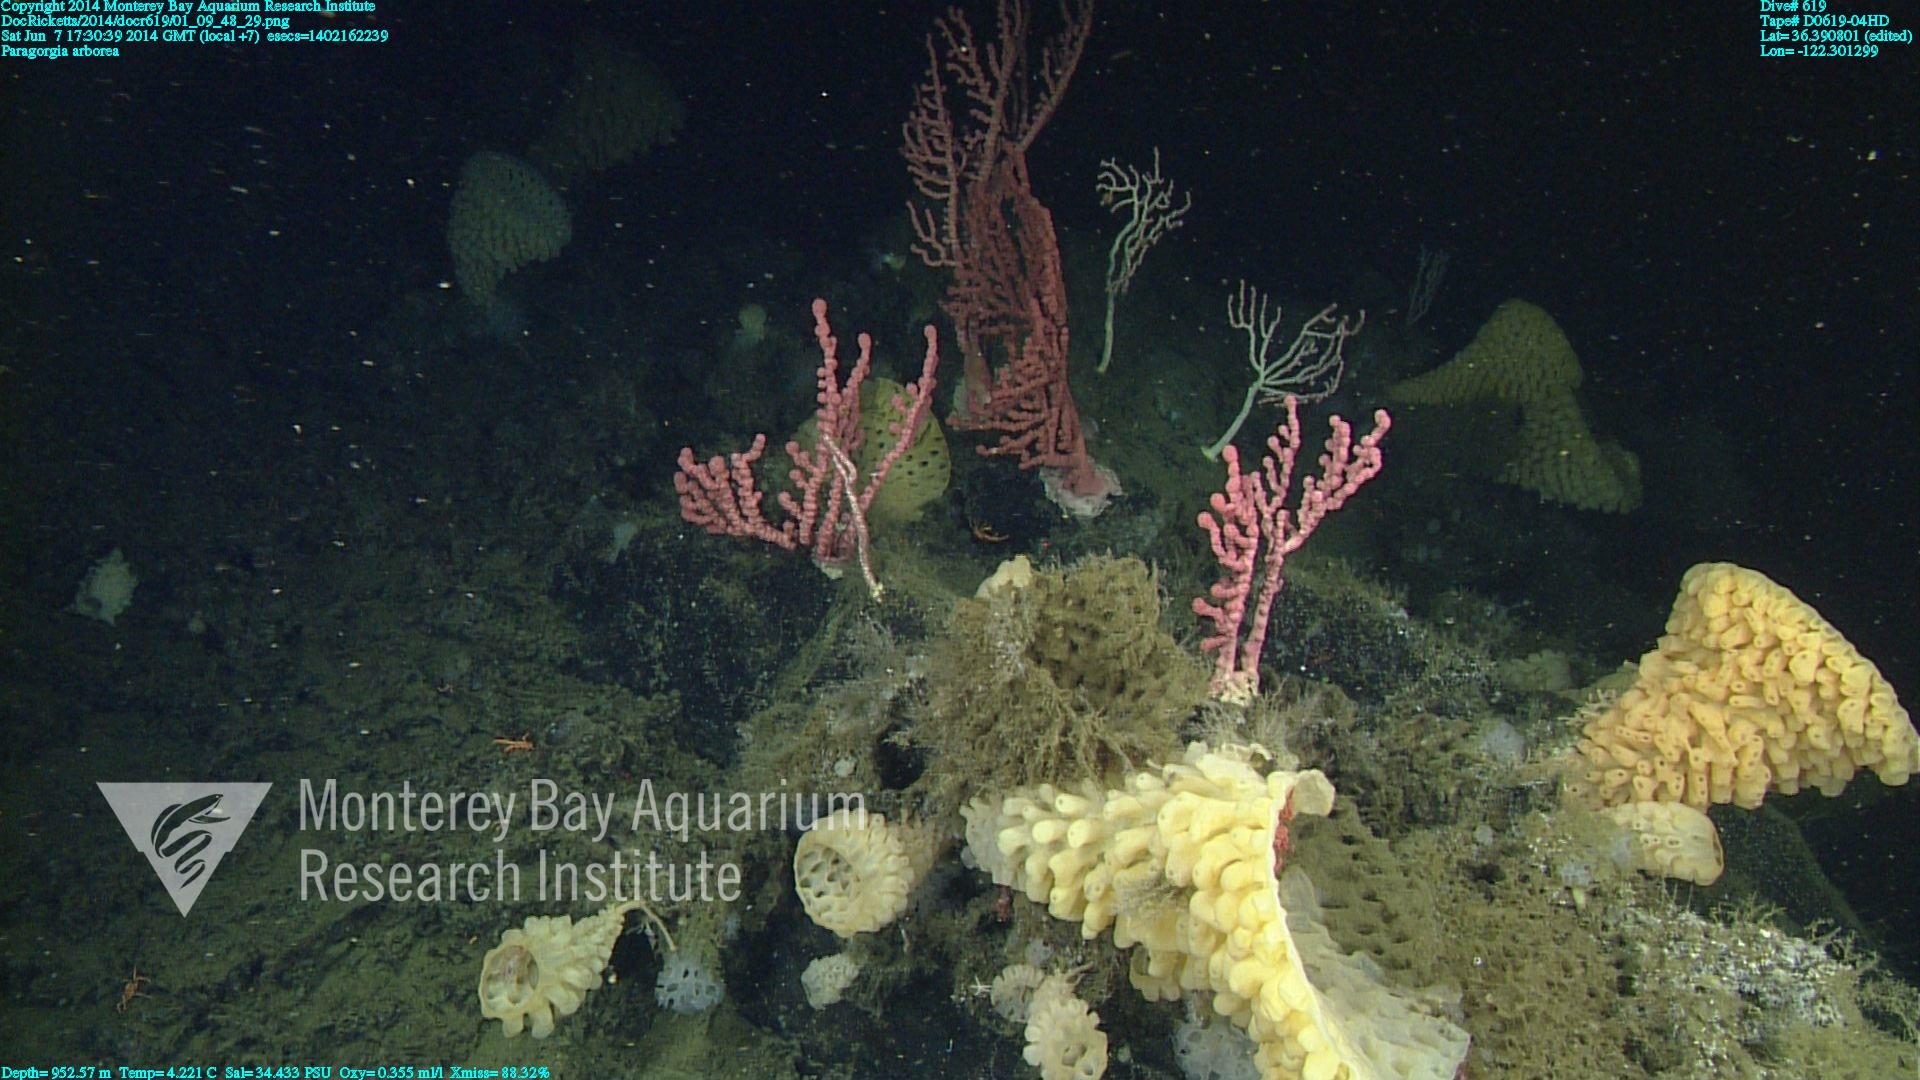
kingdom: Animalia
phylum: Cnidaria
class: Anthozoa
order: Scleralcyonacea
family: Coralliidae
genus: Paragorgia
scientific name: Paragorgia arborea
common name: Bubble gum coral
